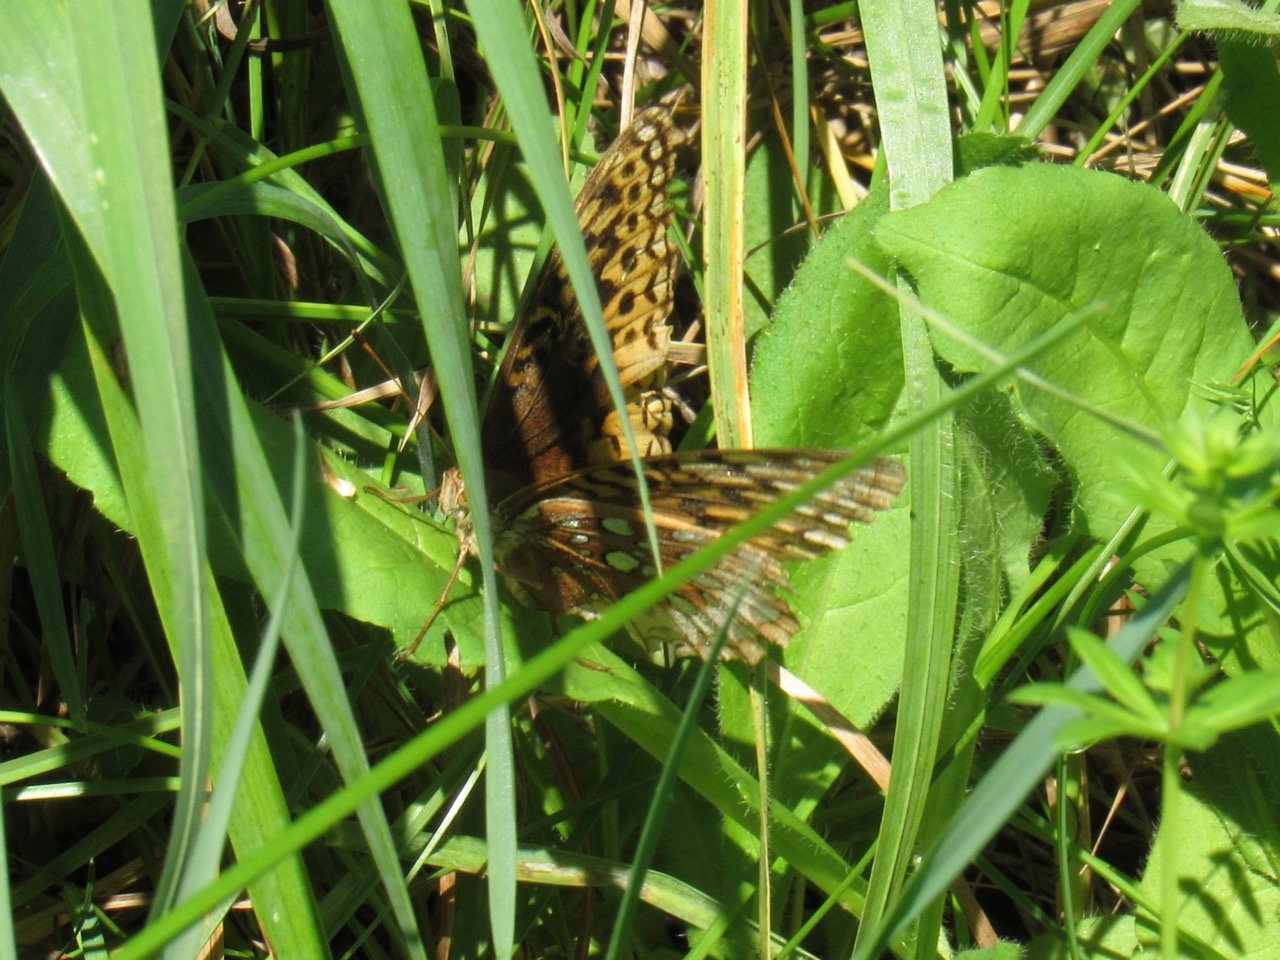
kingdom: Animalia
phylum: Arthropoda
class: Insecta
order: Lepidoptera
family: Nymphalidae
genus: Speyeria
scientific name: Speyeria cybele
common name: Great Spangled Fritillary
